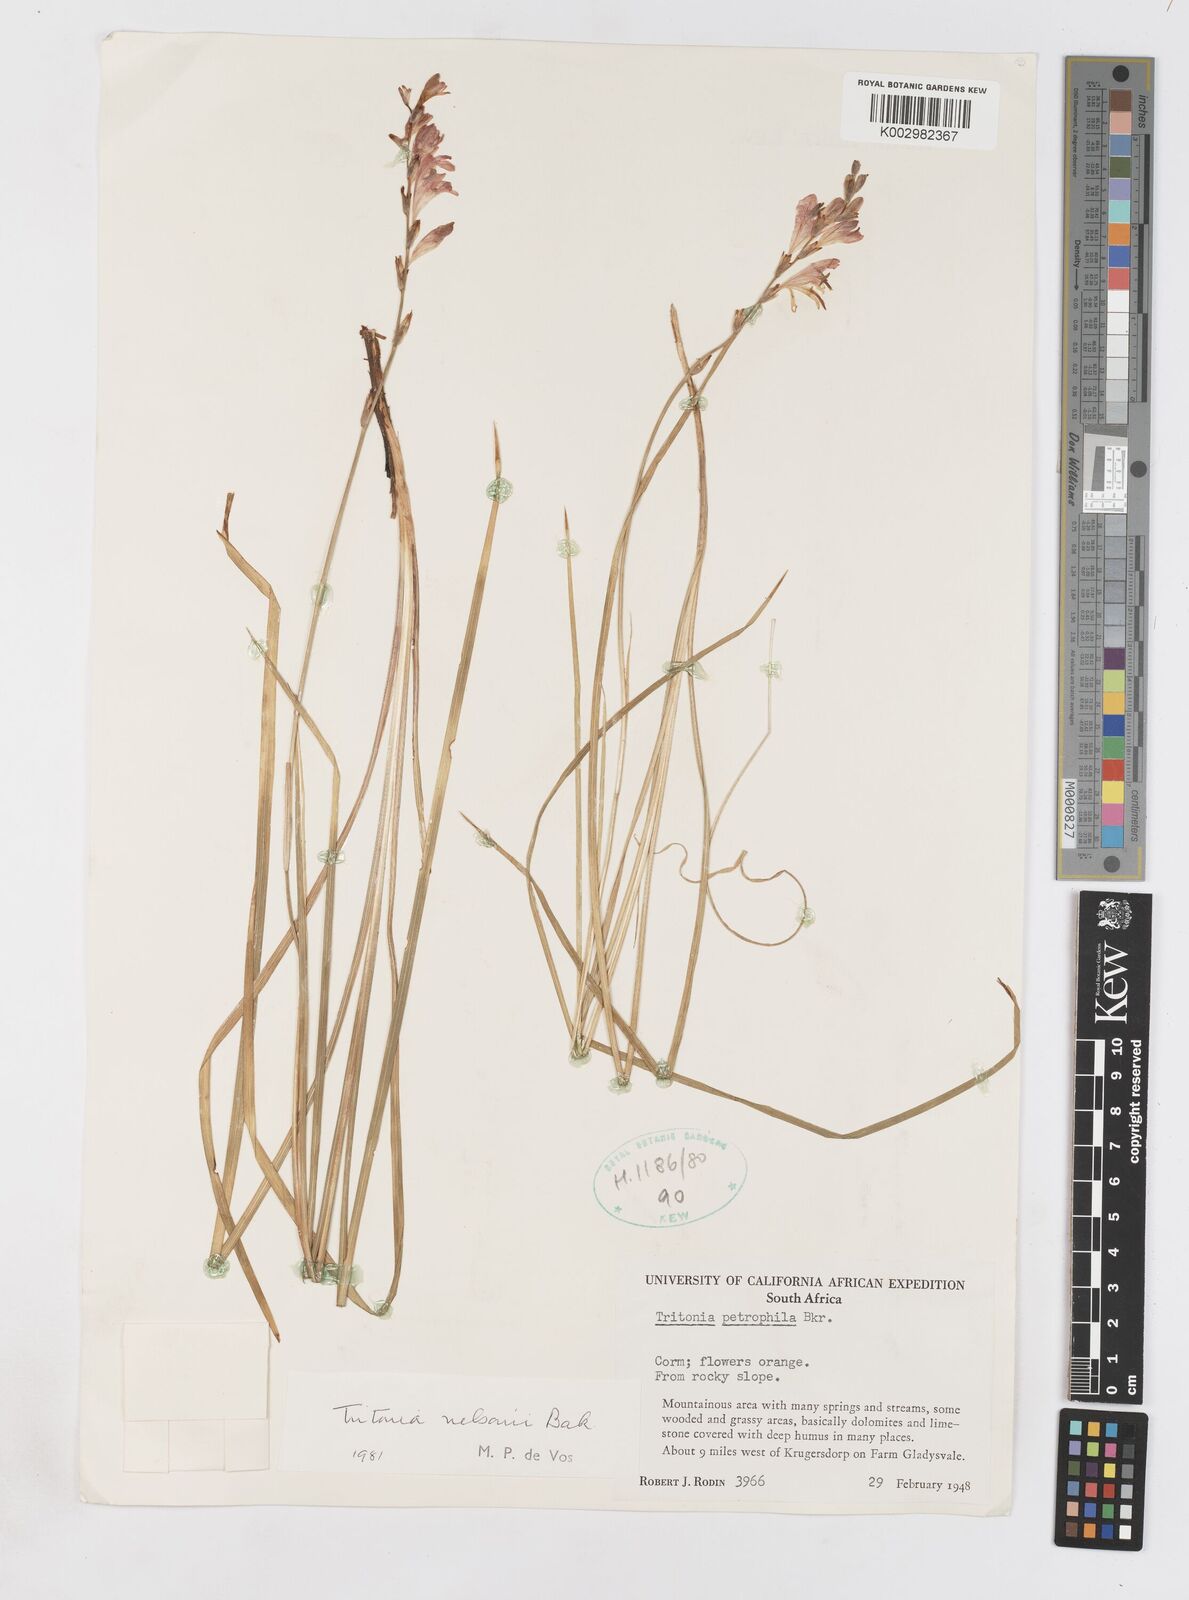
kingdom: Plantae
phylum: Tracheophyta
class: Liliopsida
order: Asparagales
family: Iridaceae
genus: Tritonia
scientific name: Tritonia nelsonii
